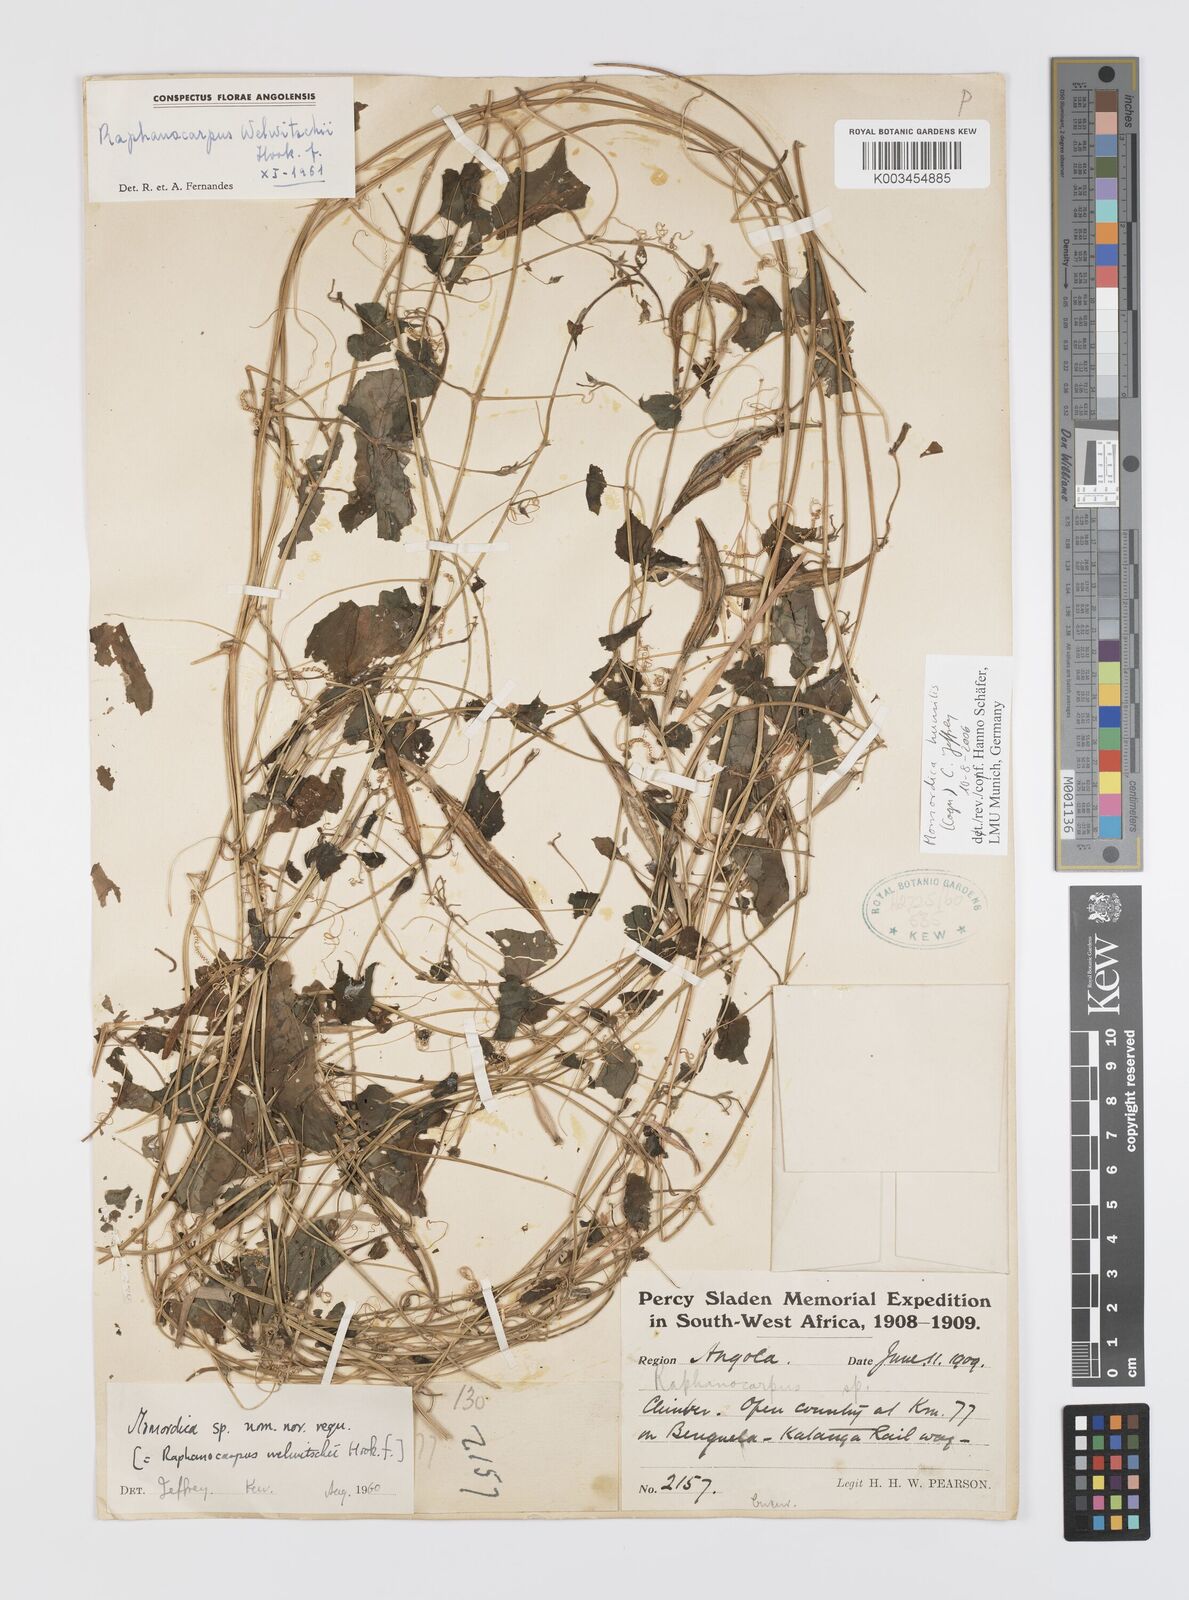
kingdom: Plantae
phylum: Tracheophyta
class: Magnoliopsida
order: Cucurbitales
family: Cucurbitaceae
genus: Momordica
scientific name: Momordica humilis
